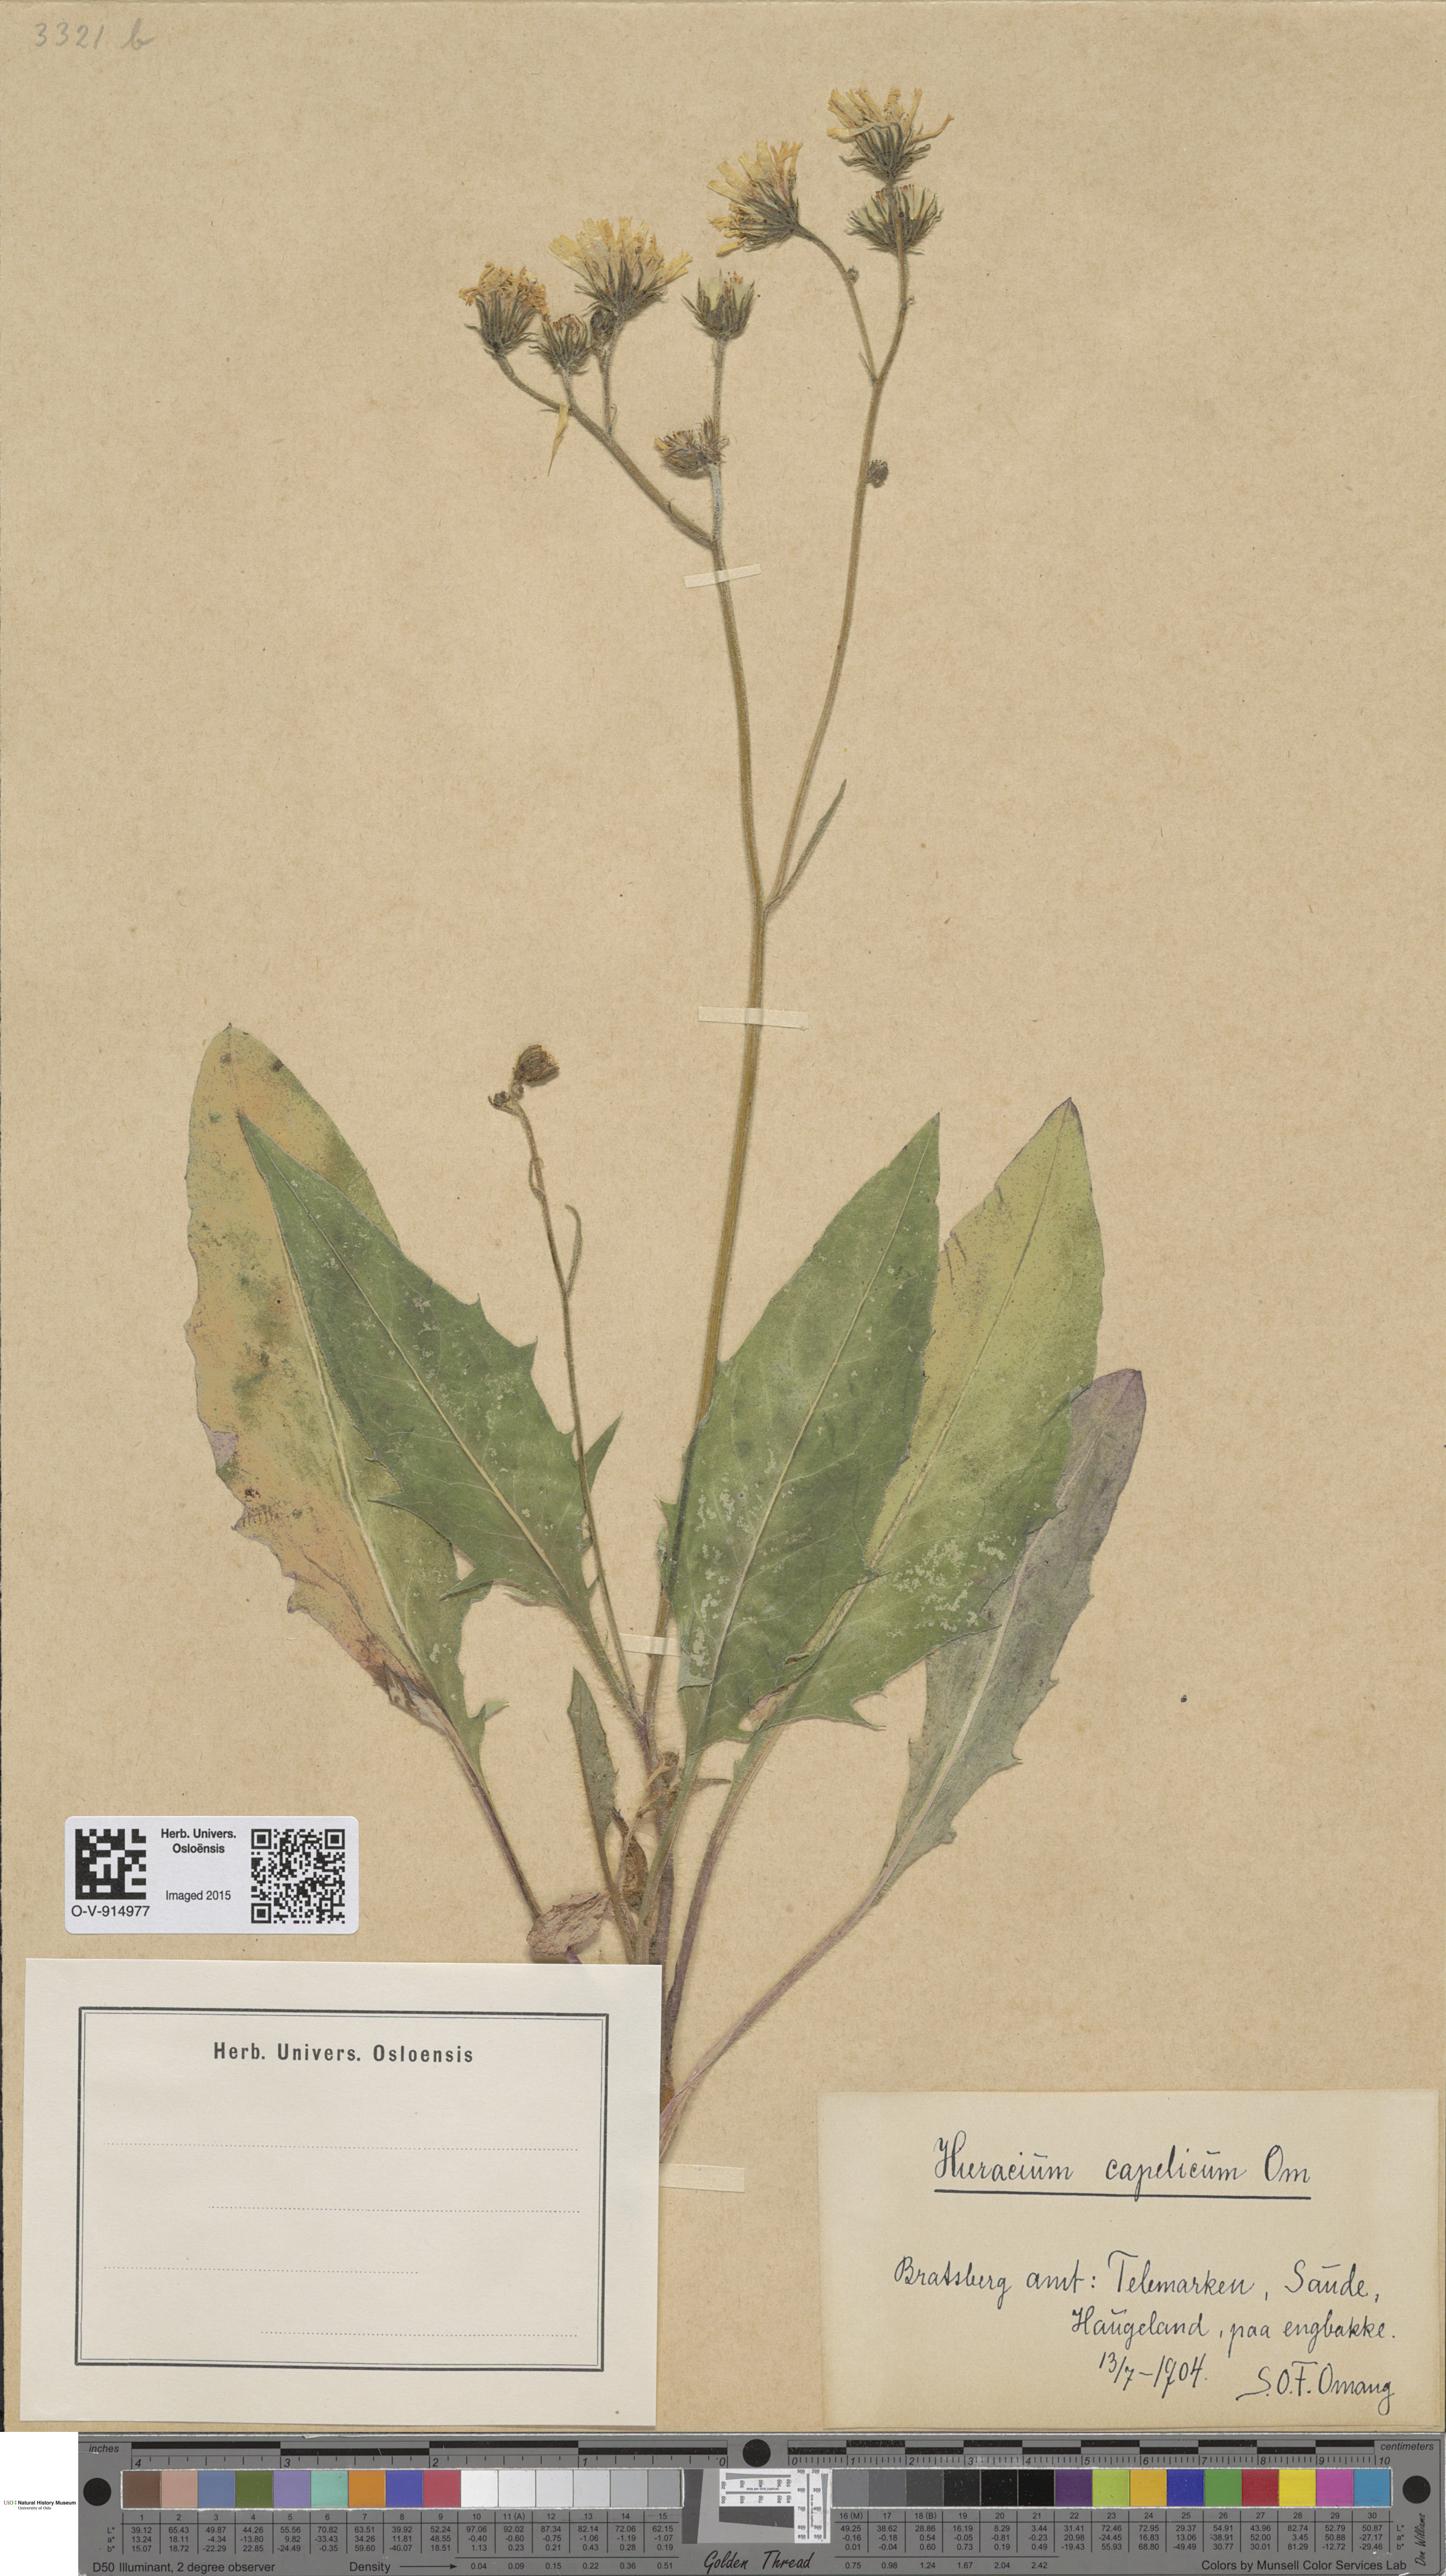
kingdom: Plantae
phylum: Tracheophyta
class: Magnoliopsida
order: Asterales
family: Asteraceae
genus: Hieracium
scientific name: Hieracium
